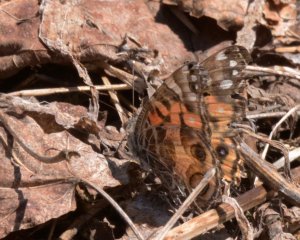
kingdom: Animalia
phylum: Arthropoda
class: Insecta
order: Lepidoptera
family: Nymphalidae
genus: Vanessa
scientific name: Vanessa virginiensis
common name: American Lady
